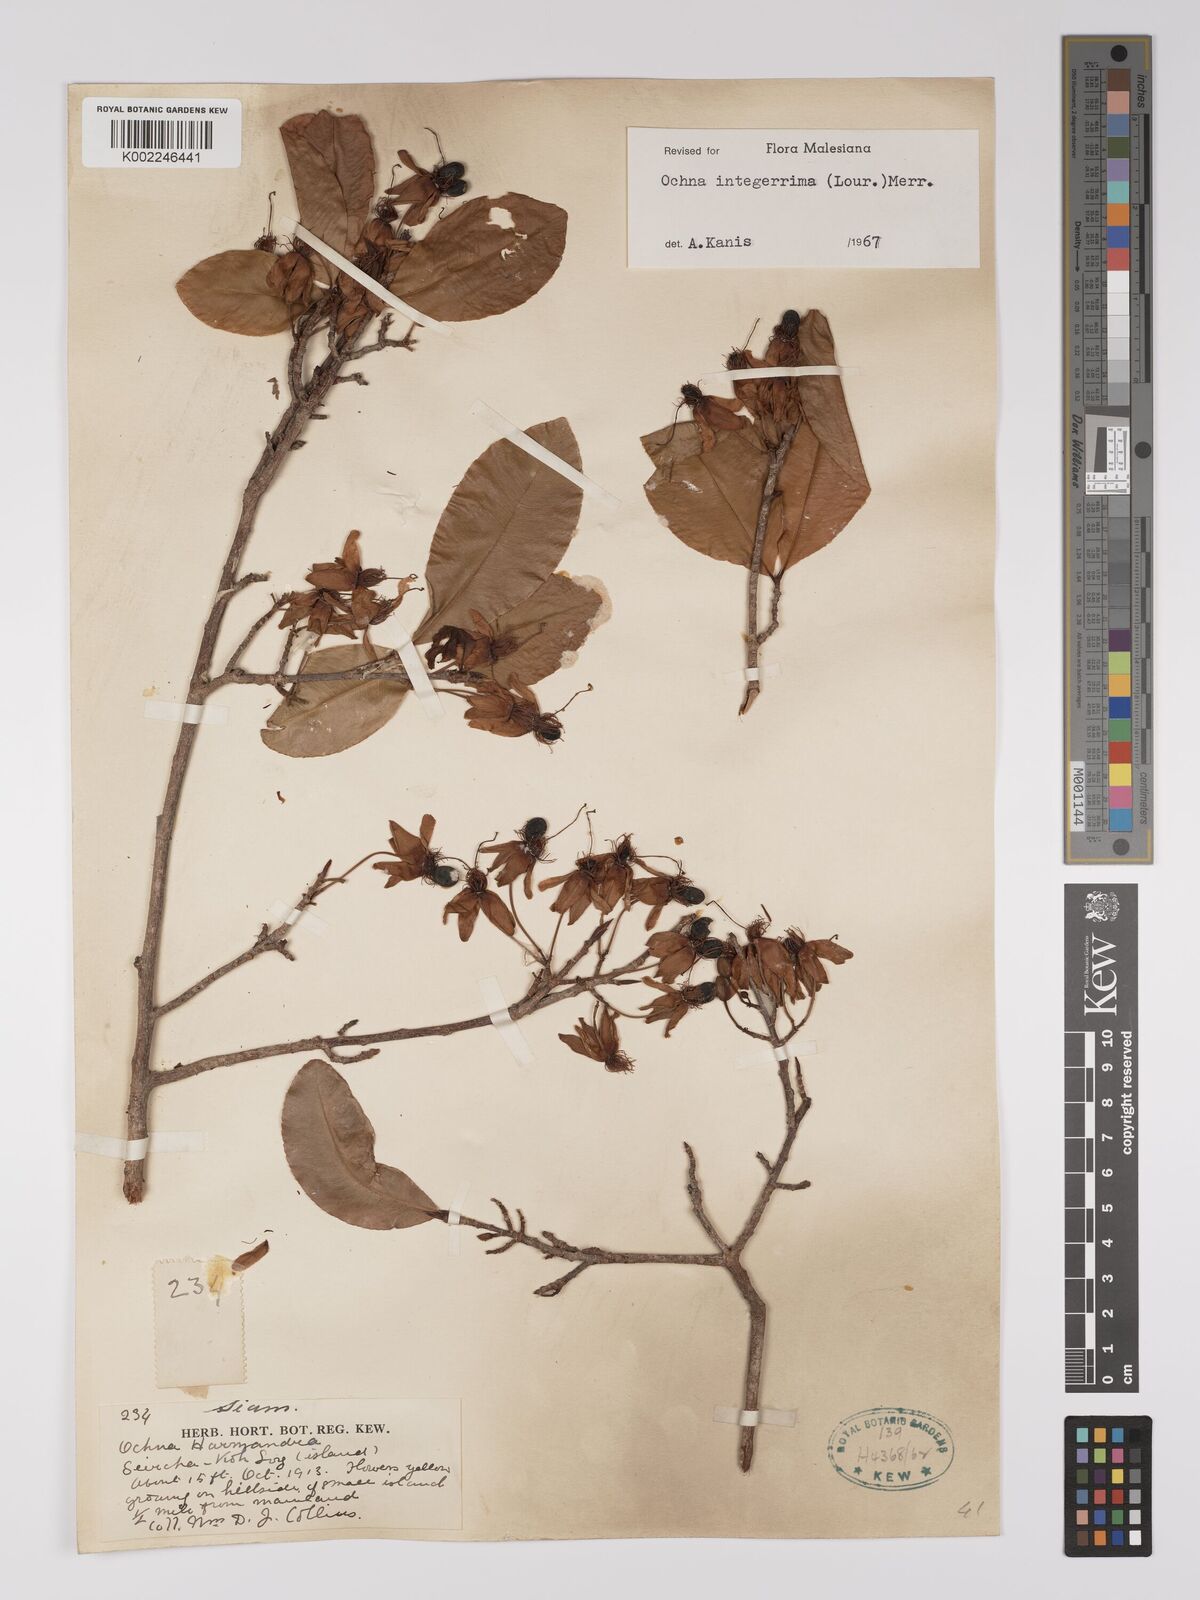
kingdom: Plantae
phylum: Tracheophyta
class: Magnoliopsida
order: Malpighiales
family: Ochnaceae
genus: Ochna
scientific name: Ochna integerrima
